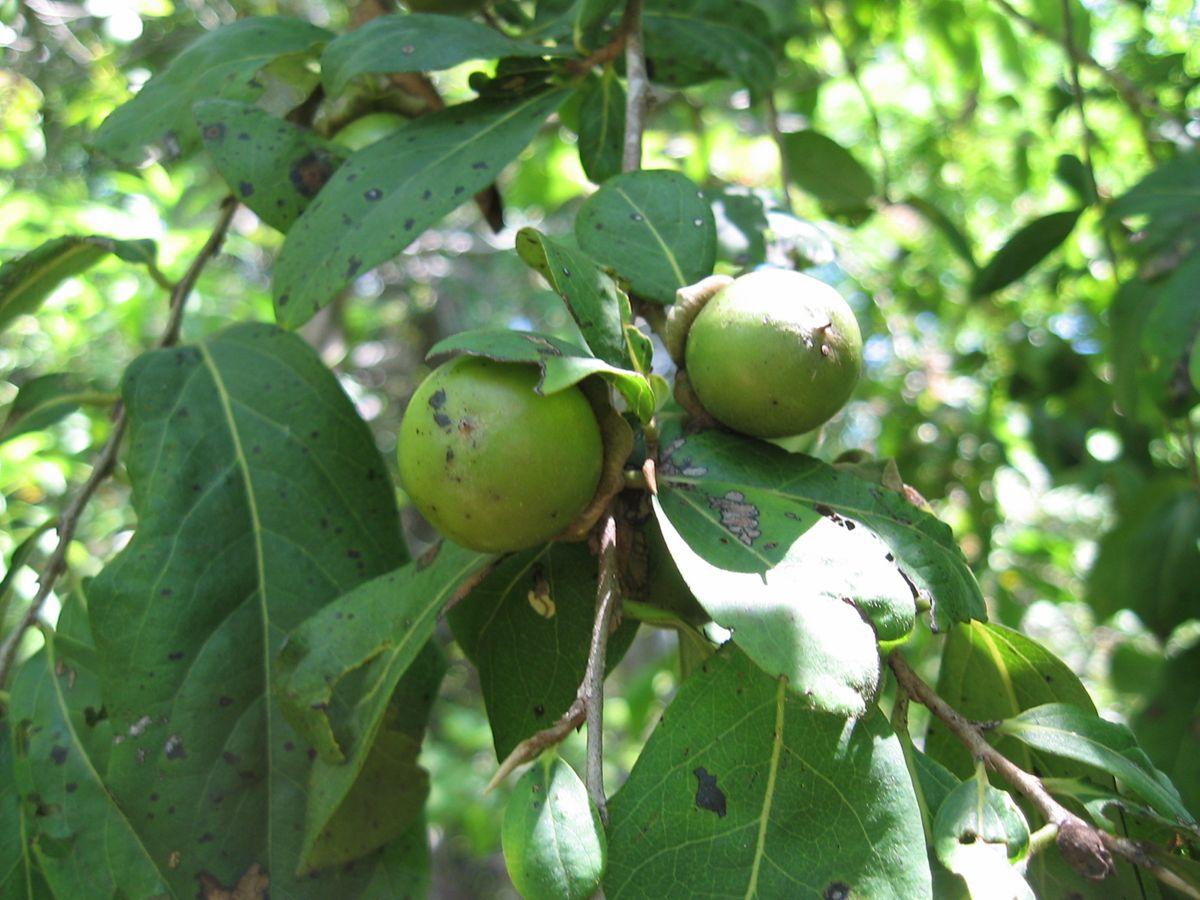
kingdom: Plantae
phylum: Tracheophyta
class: Magnoliopsida
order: Ericales
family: Ebenaceae
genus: Diospyros
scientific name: Diospyros salicifolia
